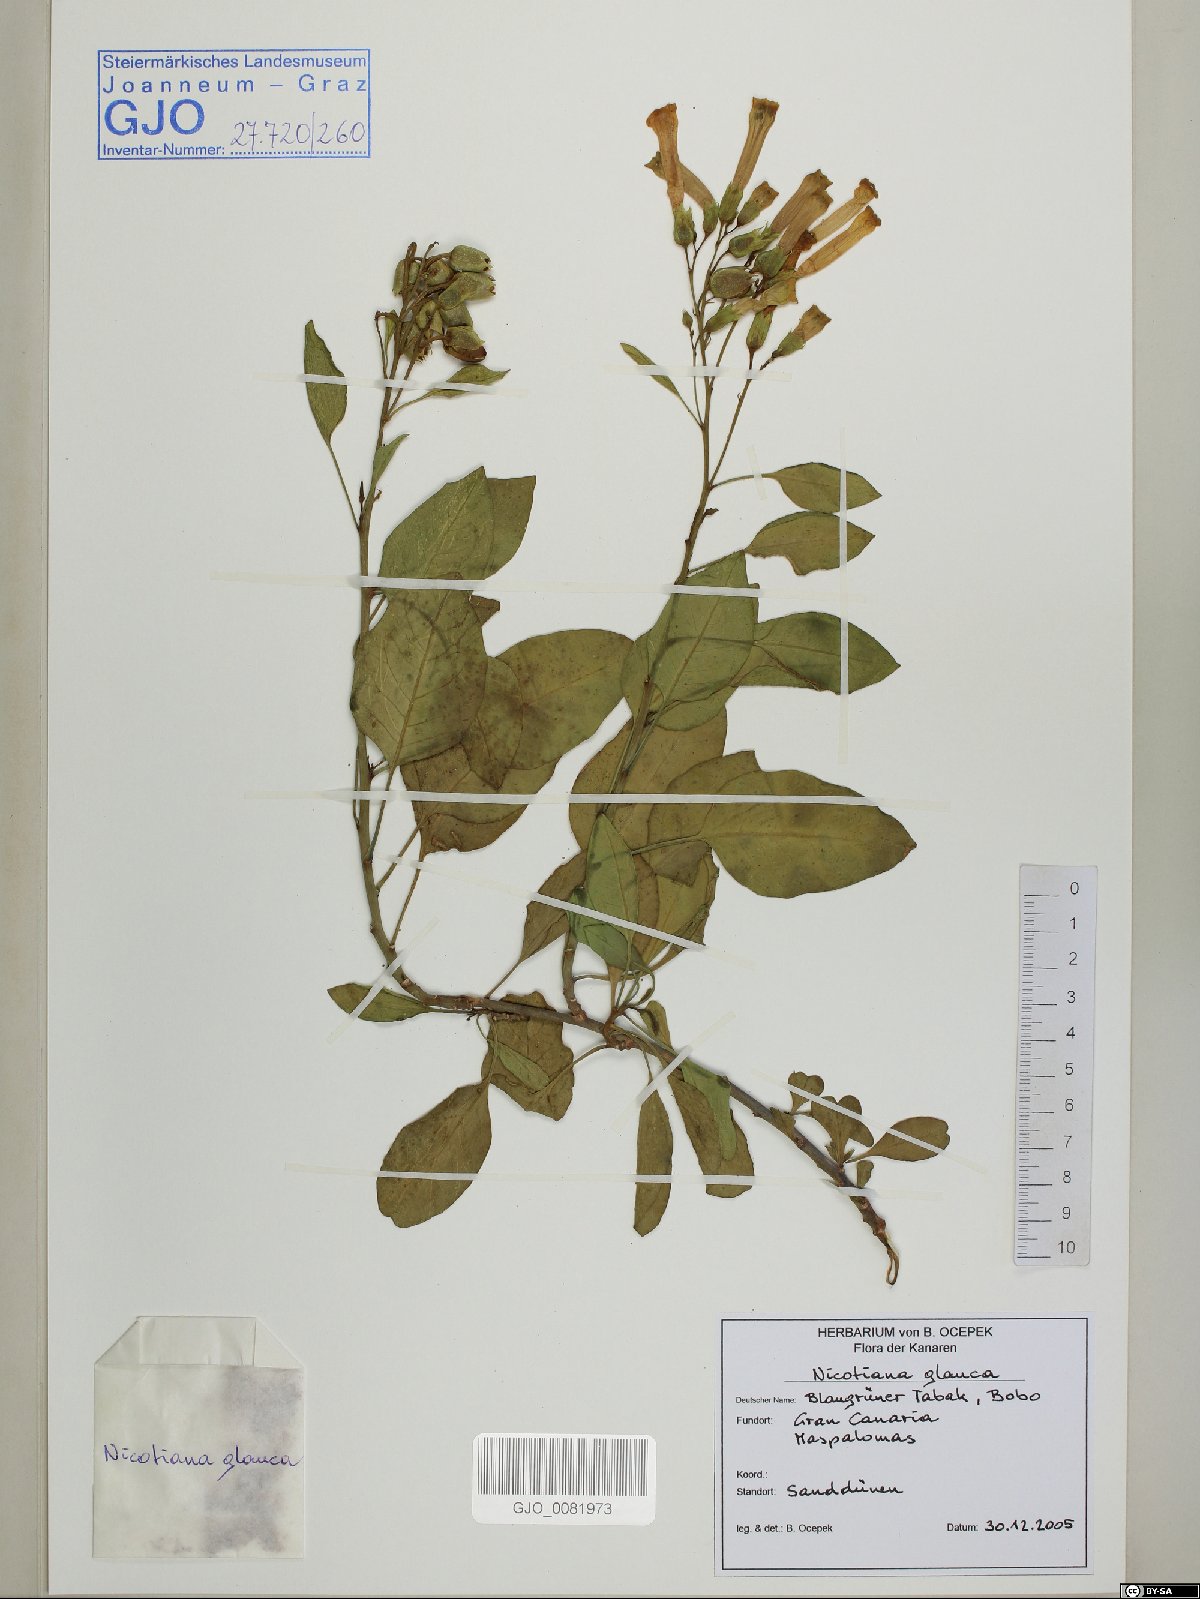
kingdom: Plantae
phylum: Tracheophyta
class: Magnoliopsida
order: Solanales
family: Solanaceae
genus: Nicotiana
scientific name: Nicotiana glauca
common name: Tree tobacco
